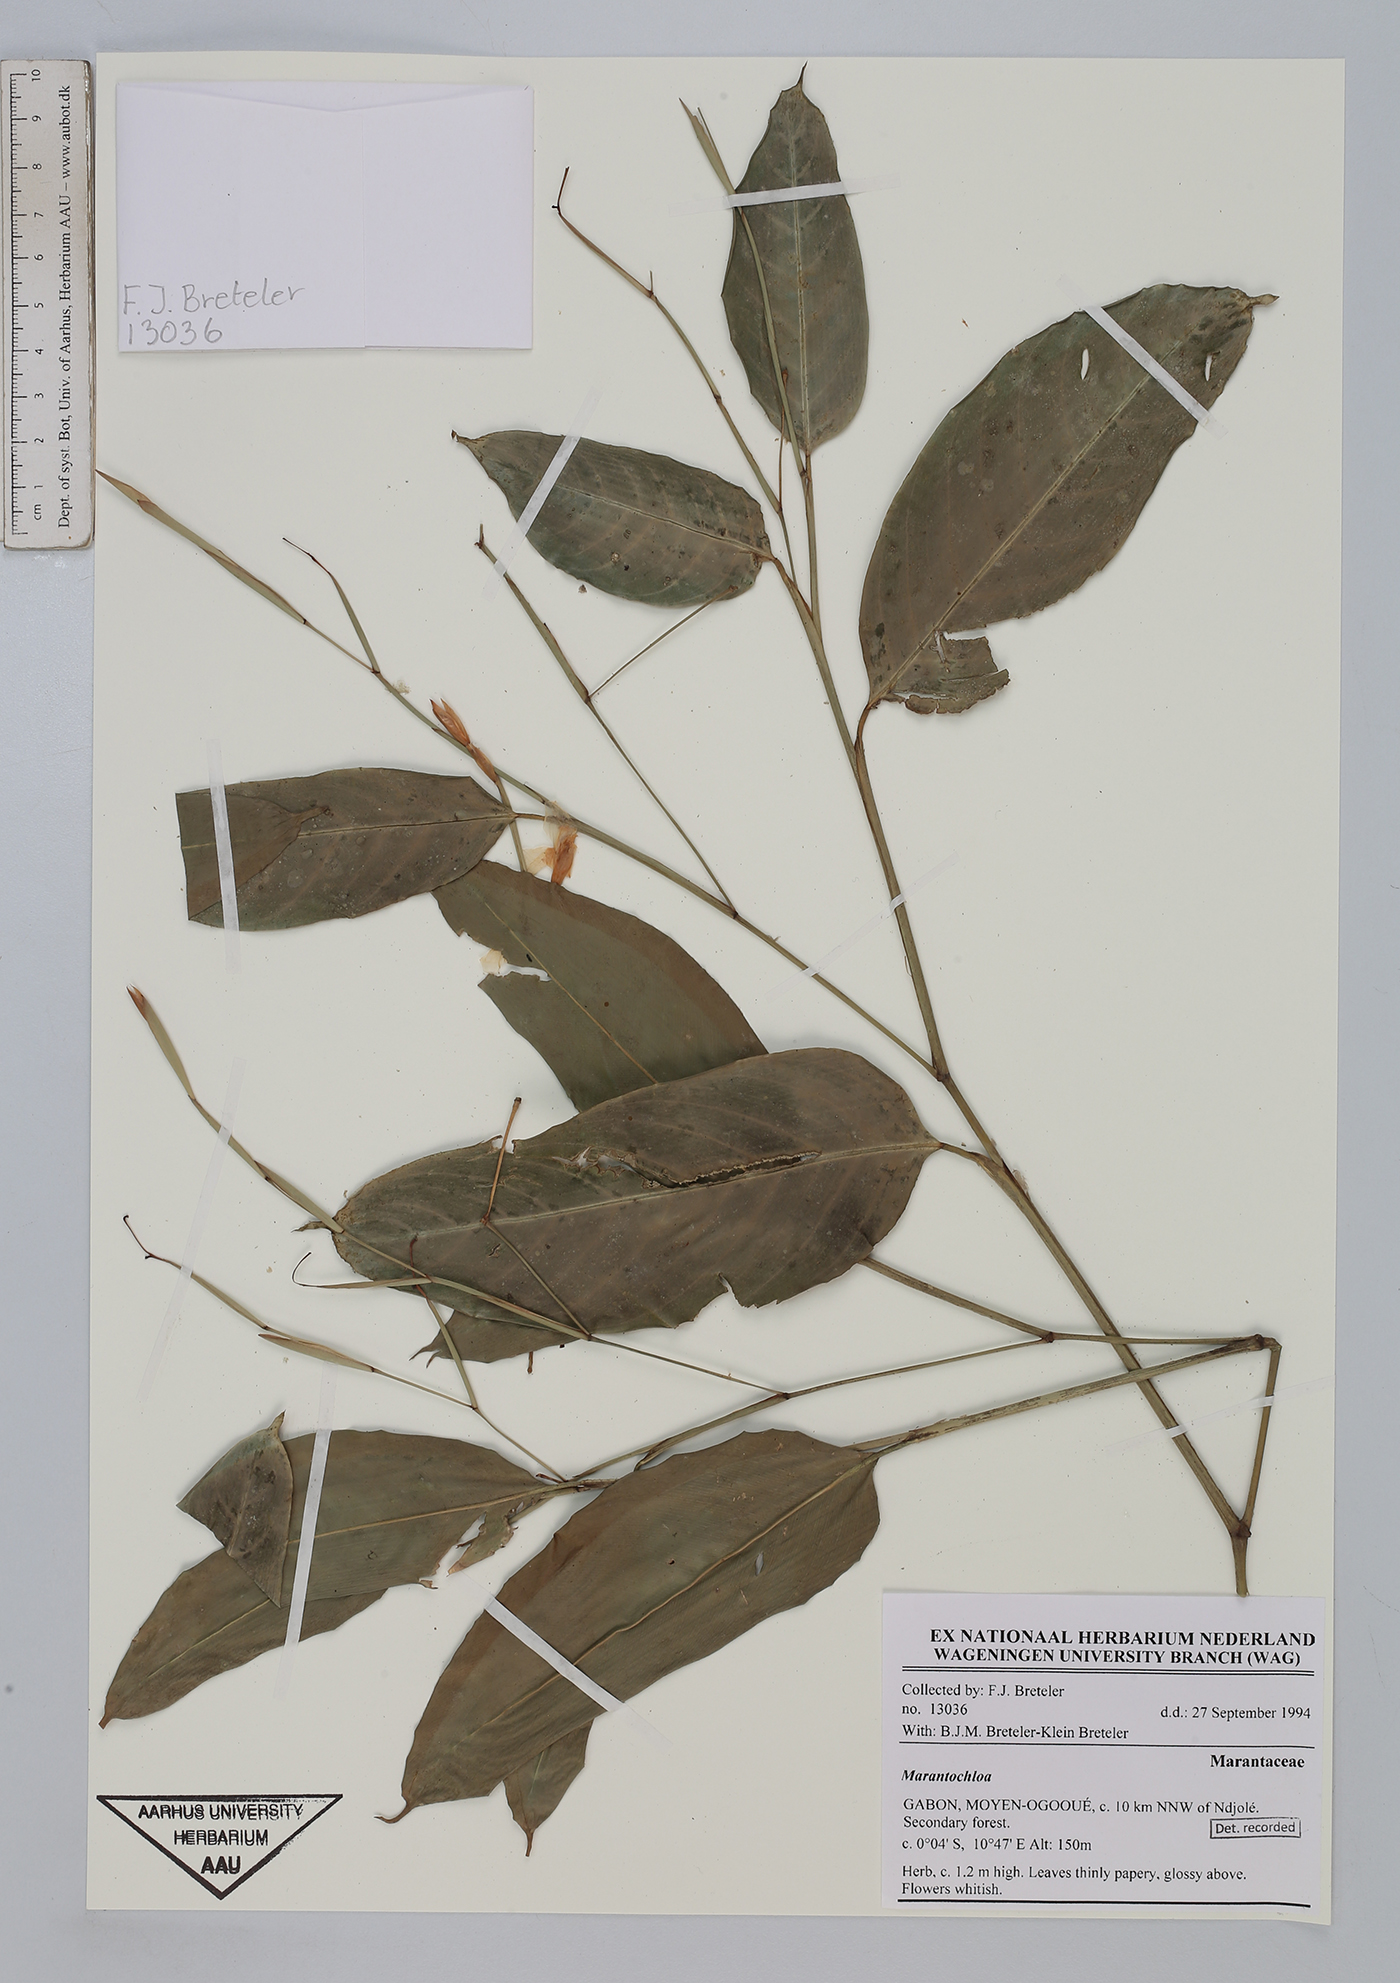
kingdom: Plantae
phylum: Tracheophyta
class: Liliopsida
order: Zingiberales
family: Marantaceae
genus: Marantochloa
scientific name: Marantochloa
